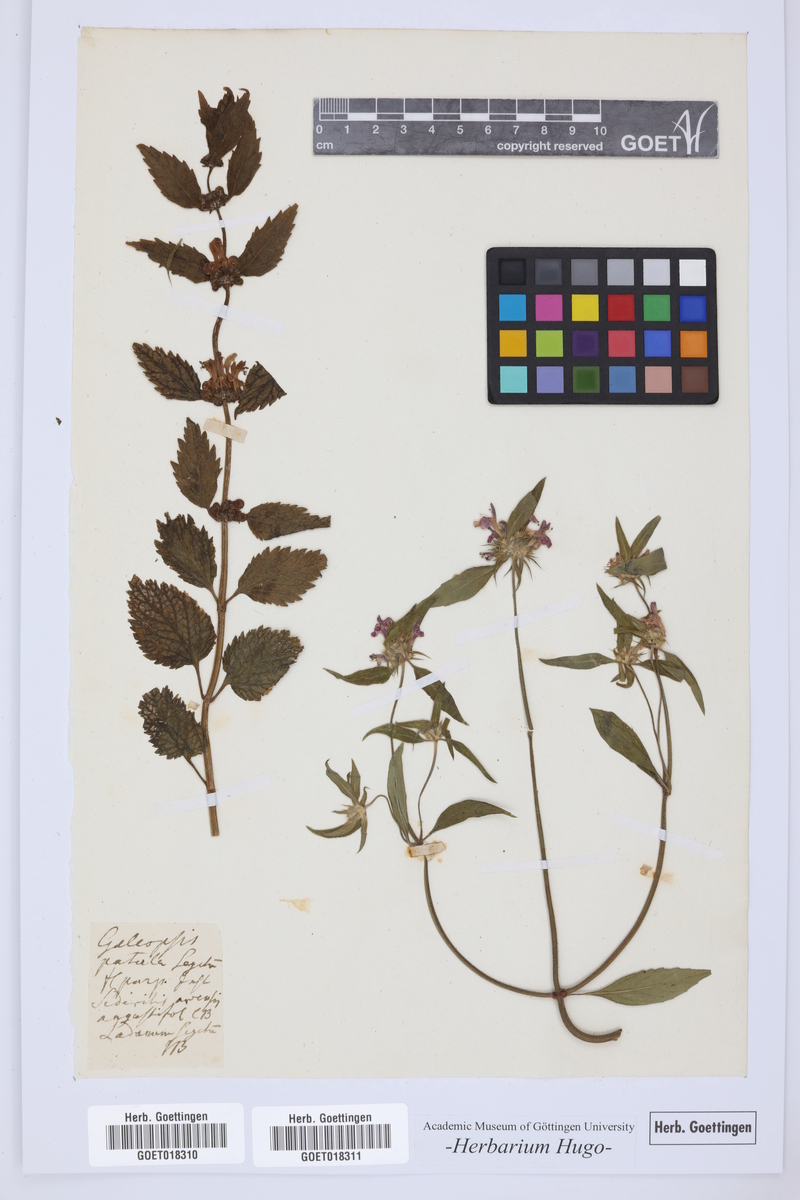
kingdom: Plantae
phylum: Tracheophyta
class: Magnoliopsida
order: Lamiales
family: Lamiaceae
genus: Galeopsis
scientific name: Galeopsis ladanum
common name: Broad-leaved hemp-nettle
